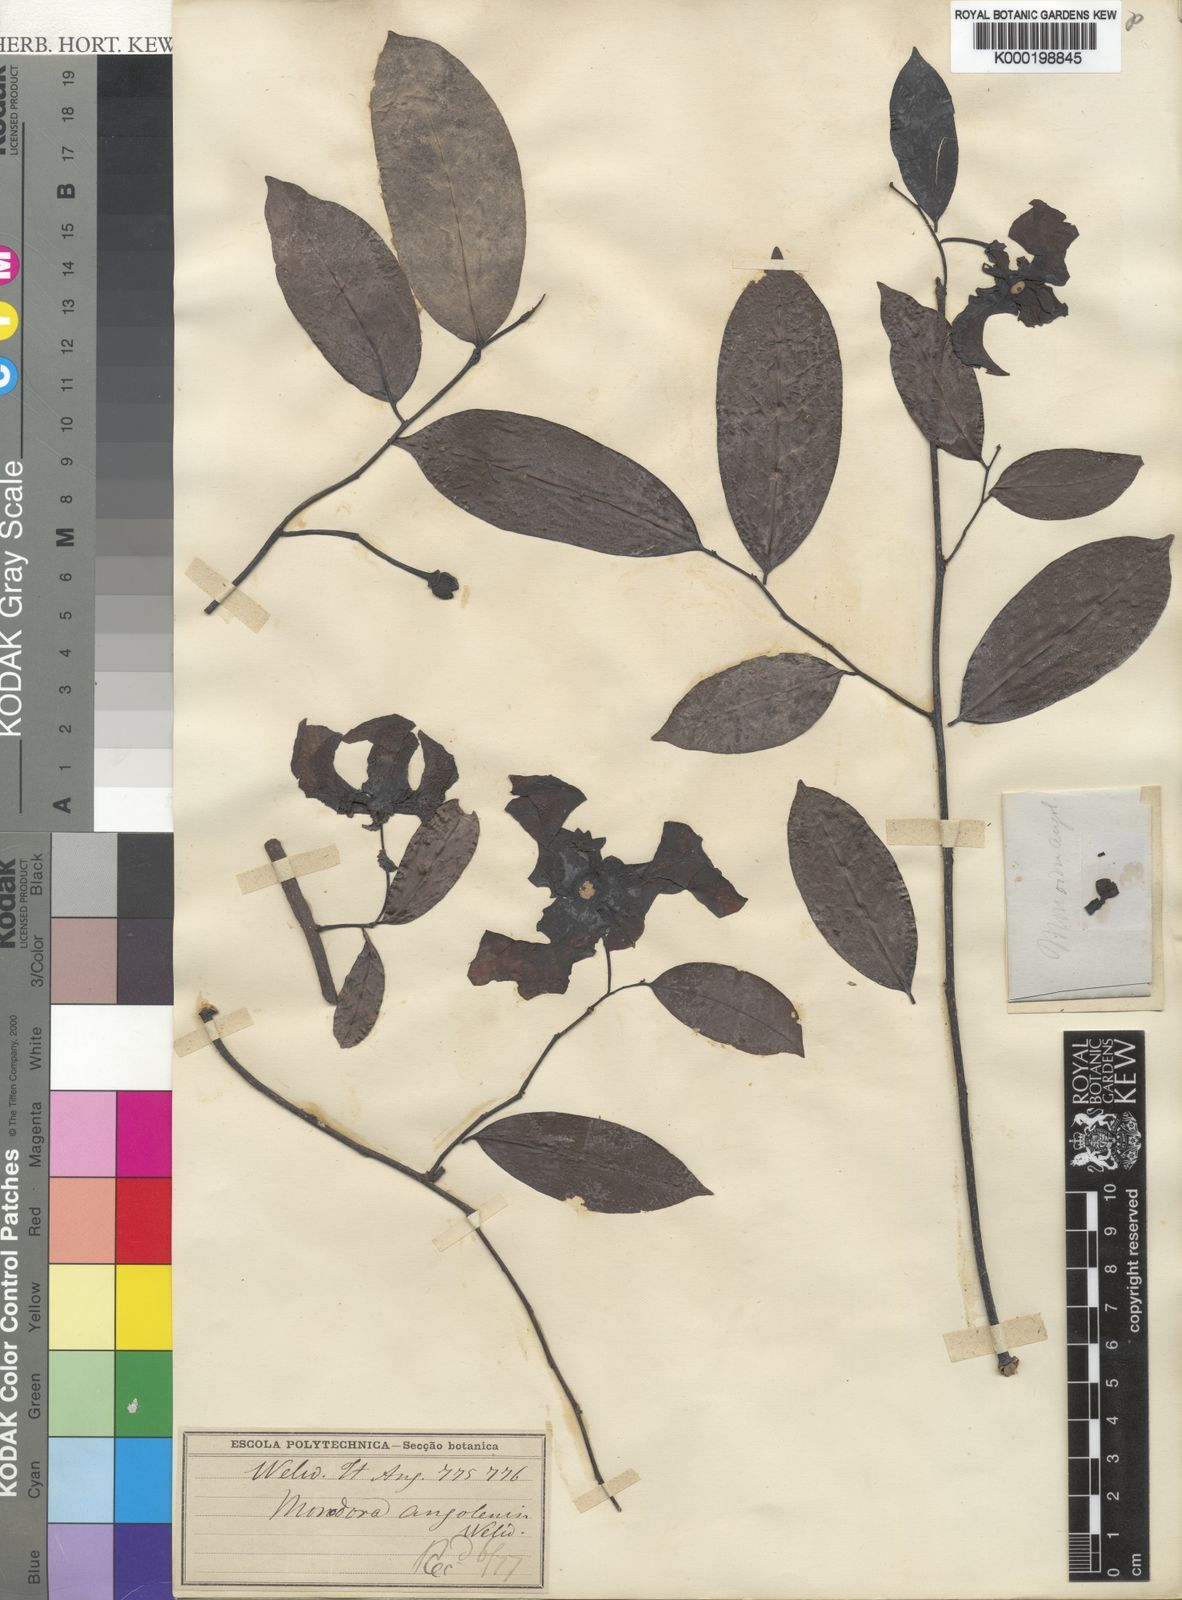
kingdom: Plantae
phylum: Tracheophyta
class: Magnoliopsida
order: Magnoliales
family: Annonaceae
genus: Monodora
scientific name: Monodora angolensis
